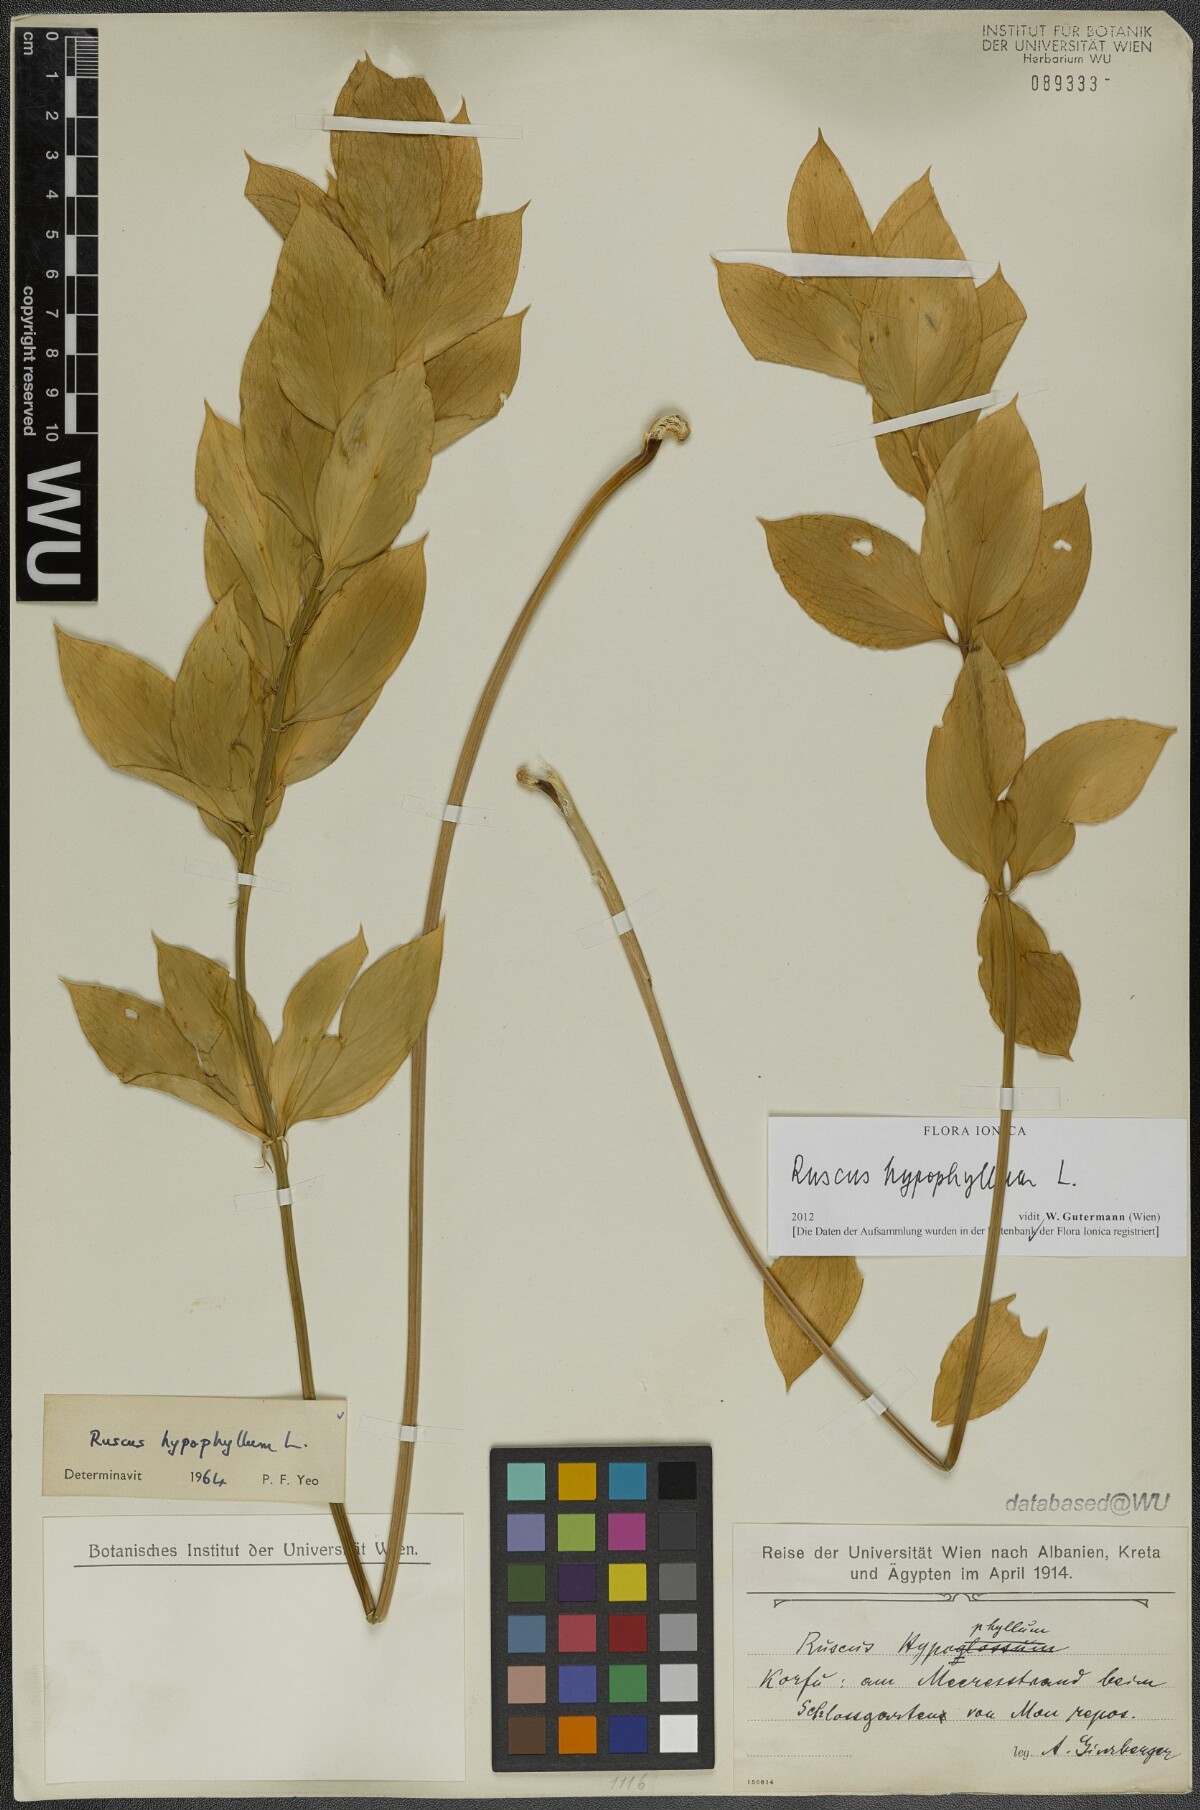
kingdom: Plantae
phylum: Tracheophyta
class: Liliopsida
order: Asparagales
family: Asparagaceae
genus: Ruscus
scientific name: Ruscus hypophyllum
